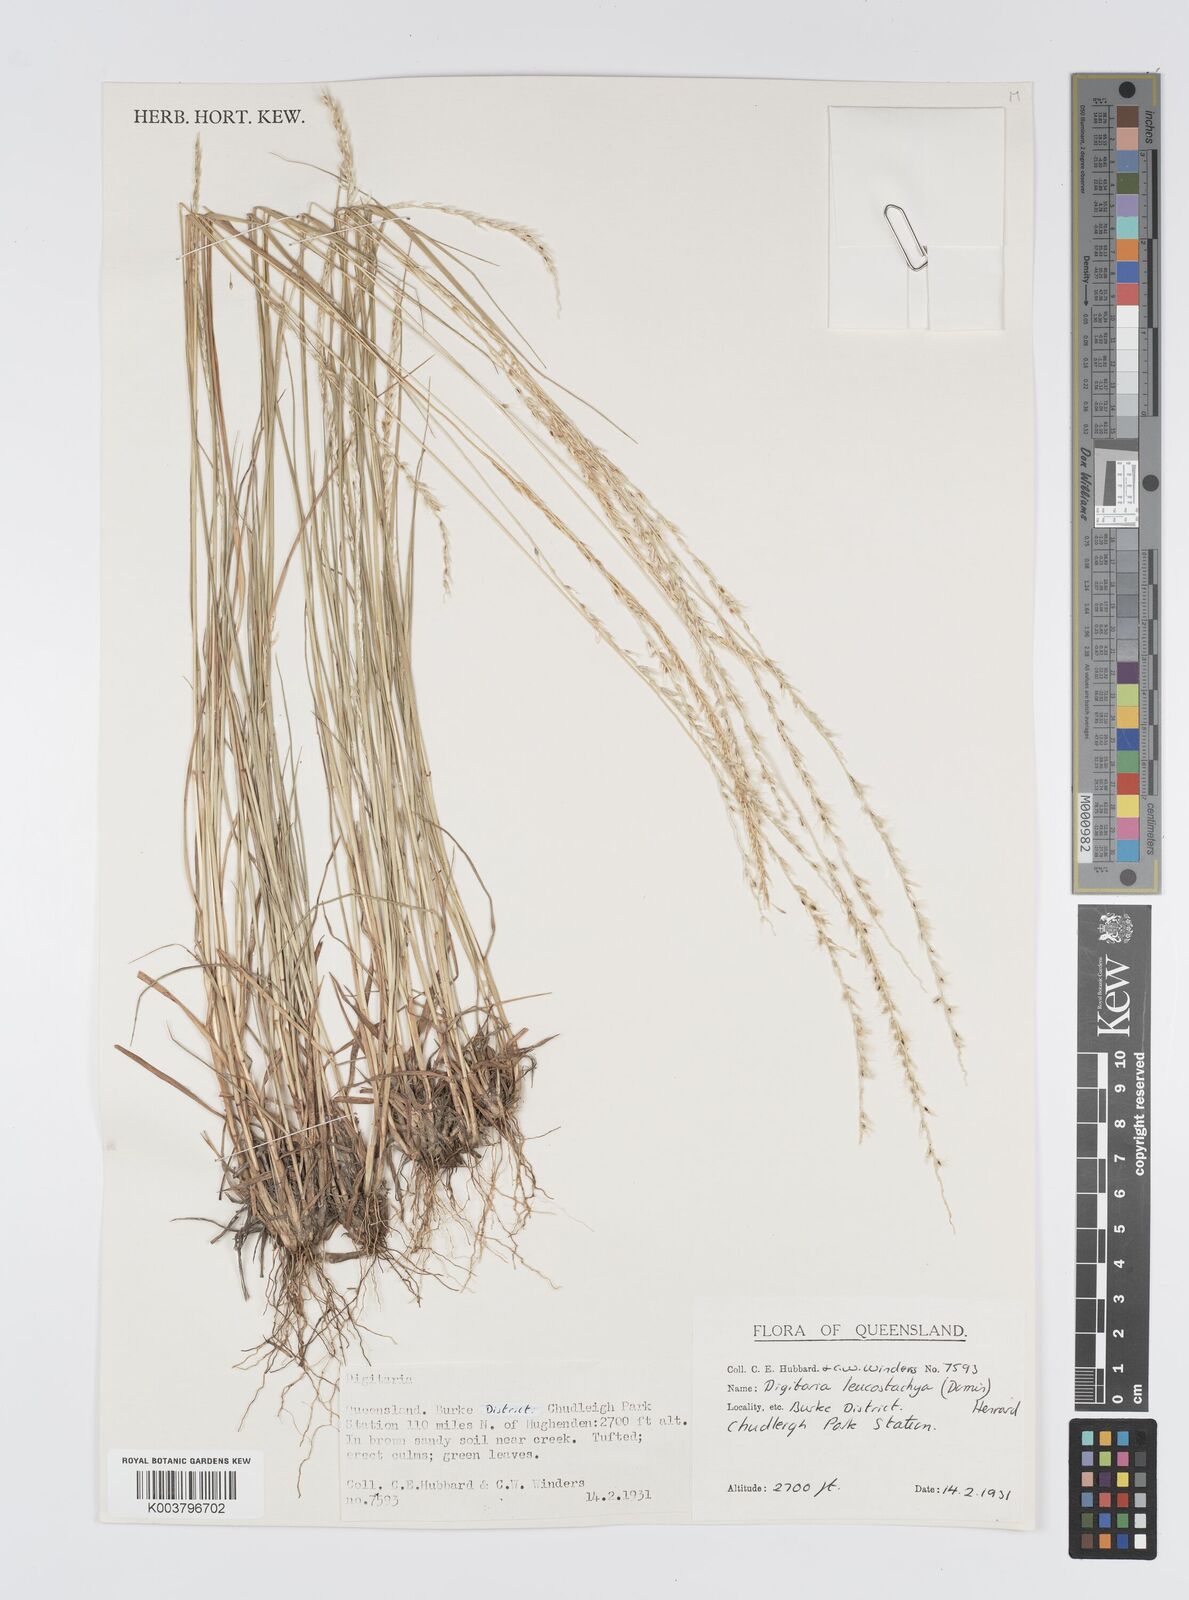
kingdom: Plantae
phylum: Tracheophyta
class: Liliopsida
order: Poales
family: Poaceae
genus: Digitaria
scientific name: Digitaria leucostachya
